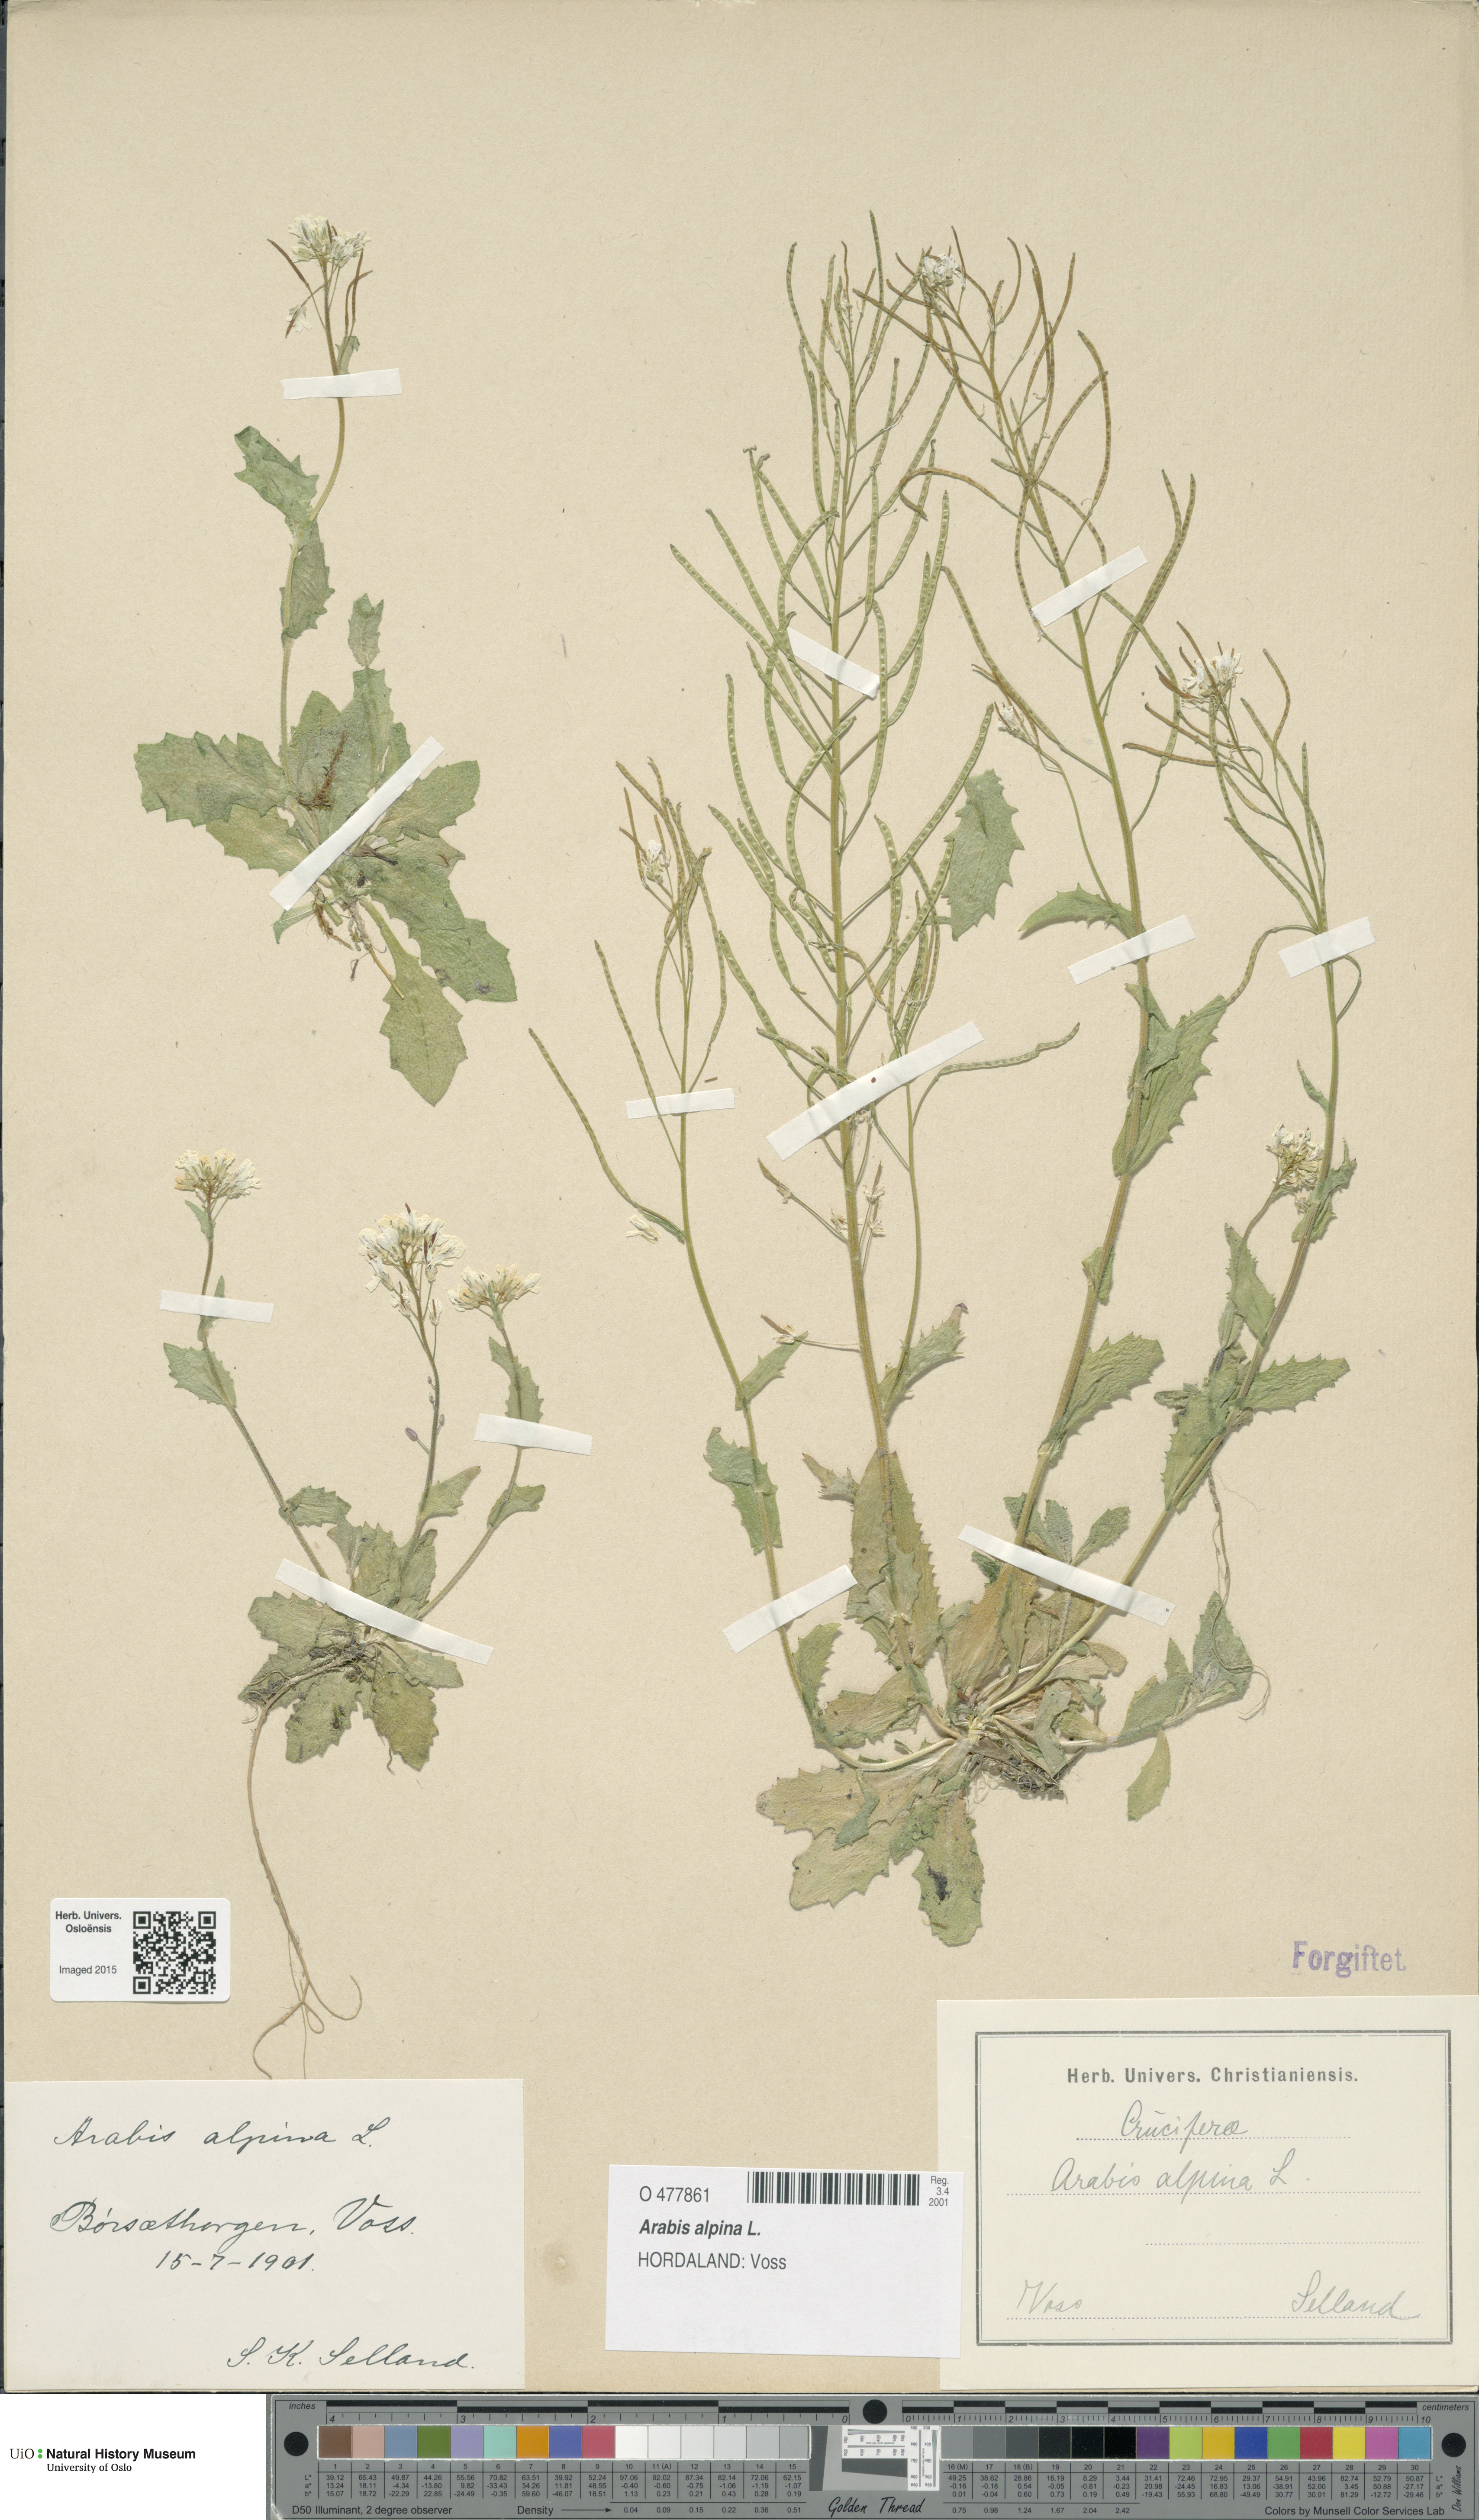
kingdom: Plantae
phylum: Tracheophyta
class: Magnoliopsida
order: Brassicales
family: Brassicaceae
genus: Arabis
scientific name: Arabis alpina
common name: Alpine rock-cress
